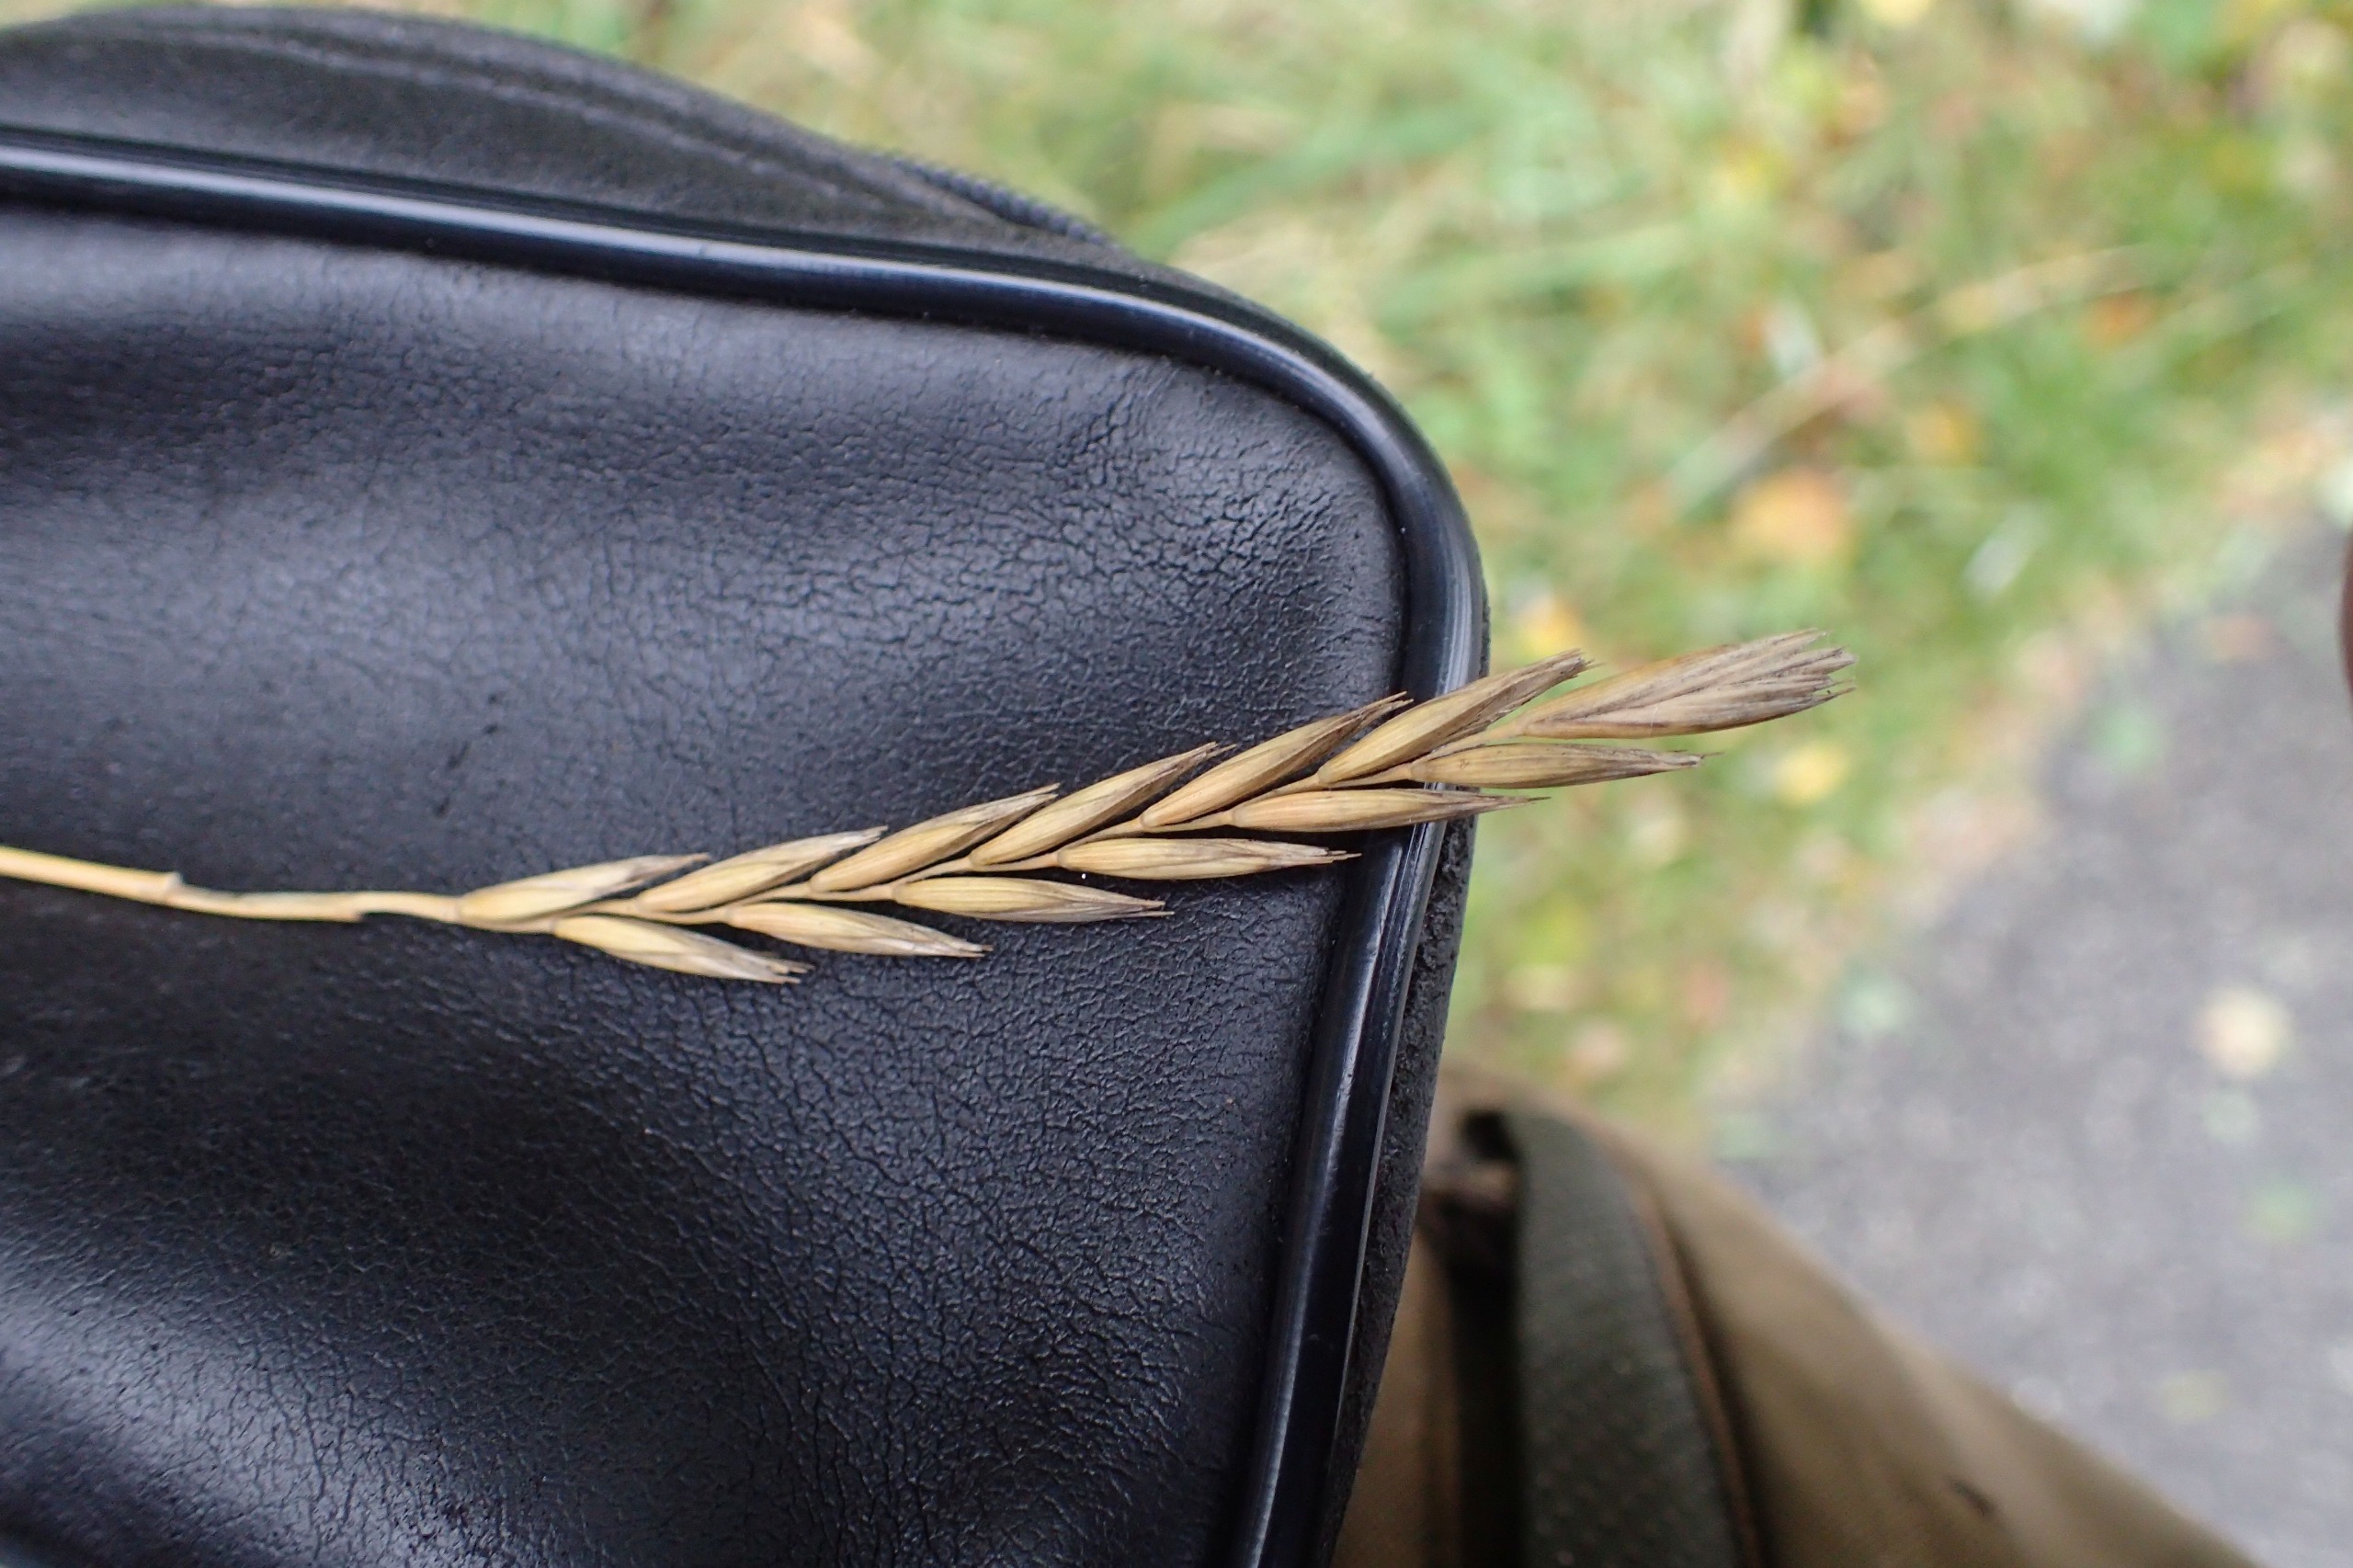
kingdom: Plantae
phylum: Tracheophyta
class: Liliopsida
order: Poales
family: Poaceae
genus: Elymus
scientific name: Elymus repens
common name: Almindelig kvik
